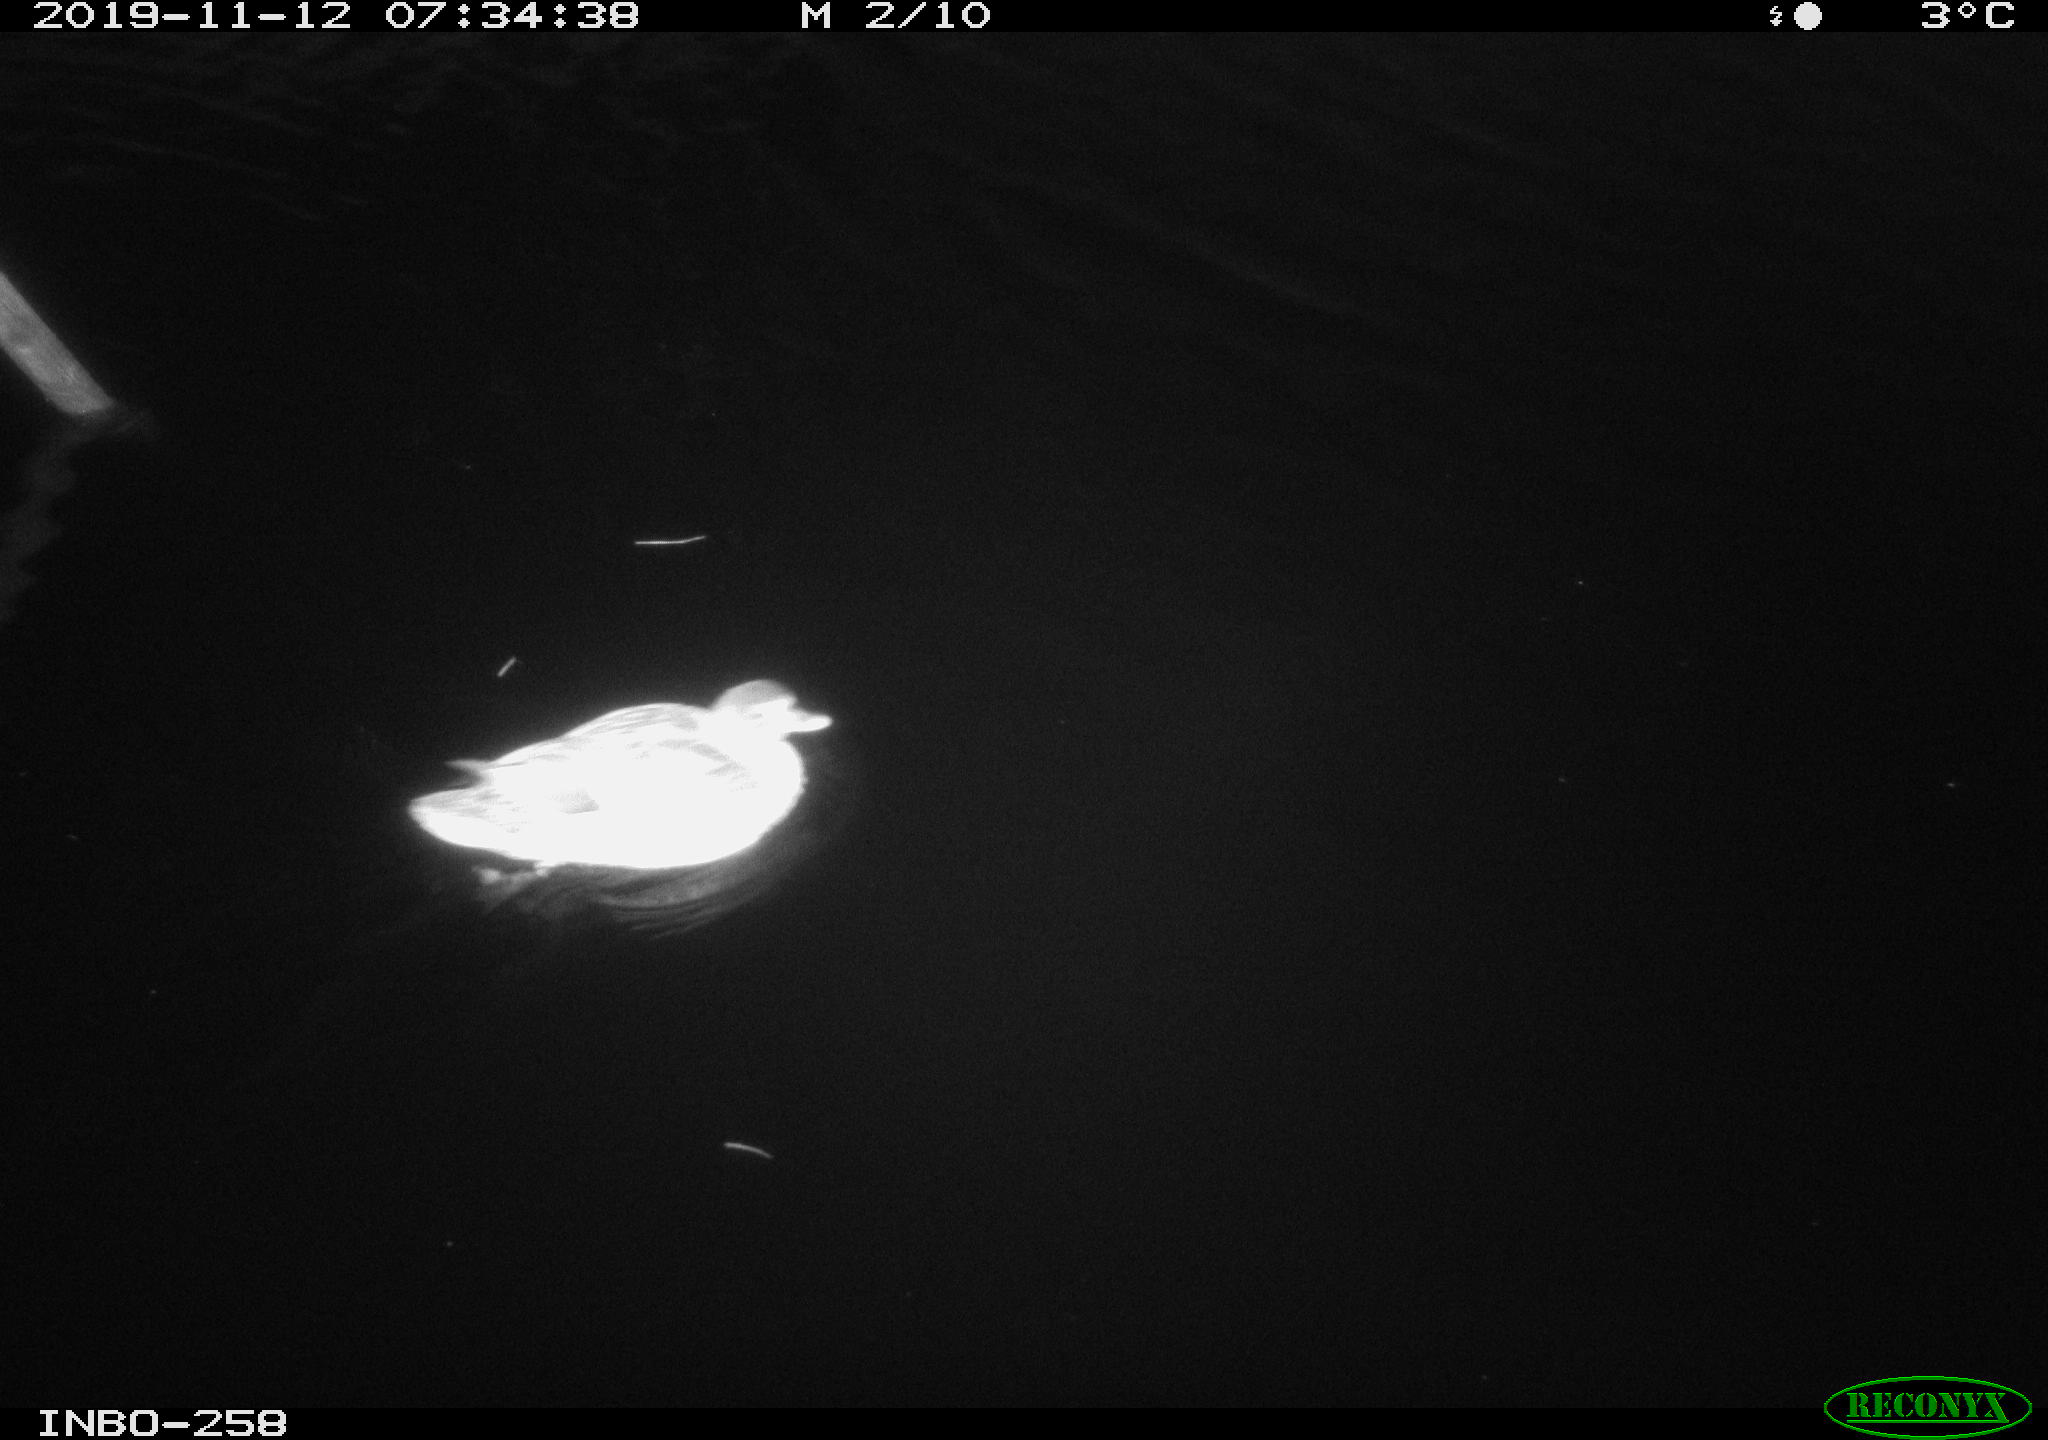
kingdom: Animalia
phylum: Chordata
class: Aves
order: Anseriformes
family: Anatidae
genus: Anas
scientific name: Anas platyrhynchos
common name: Mallard
